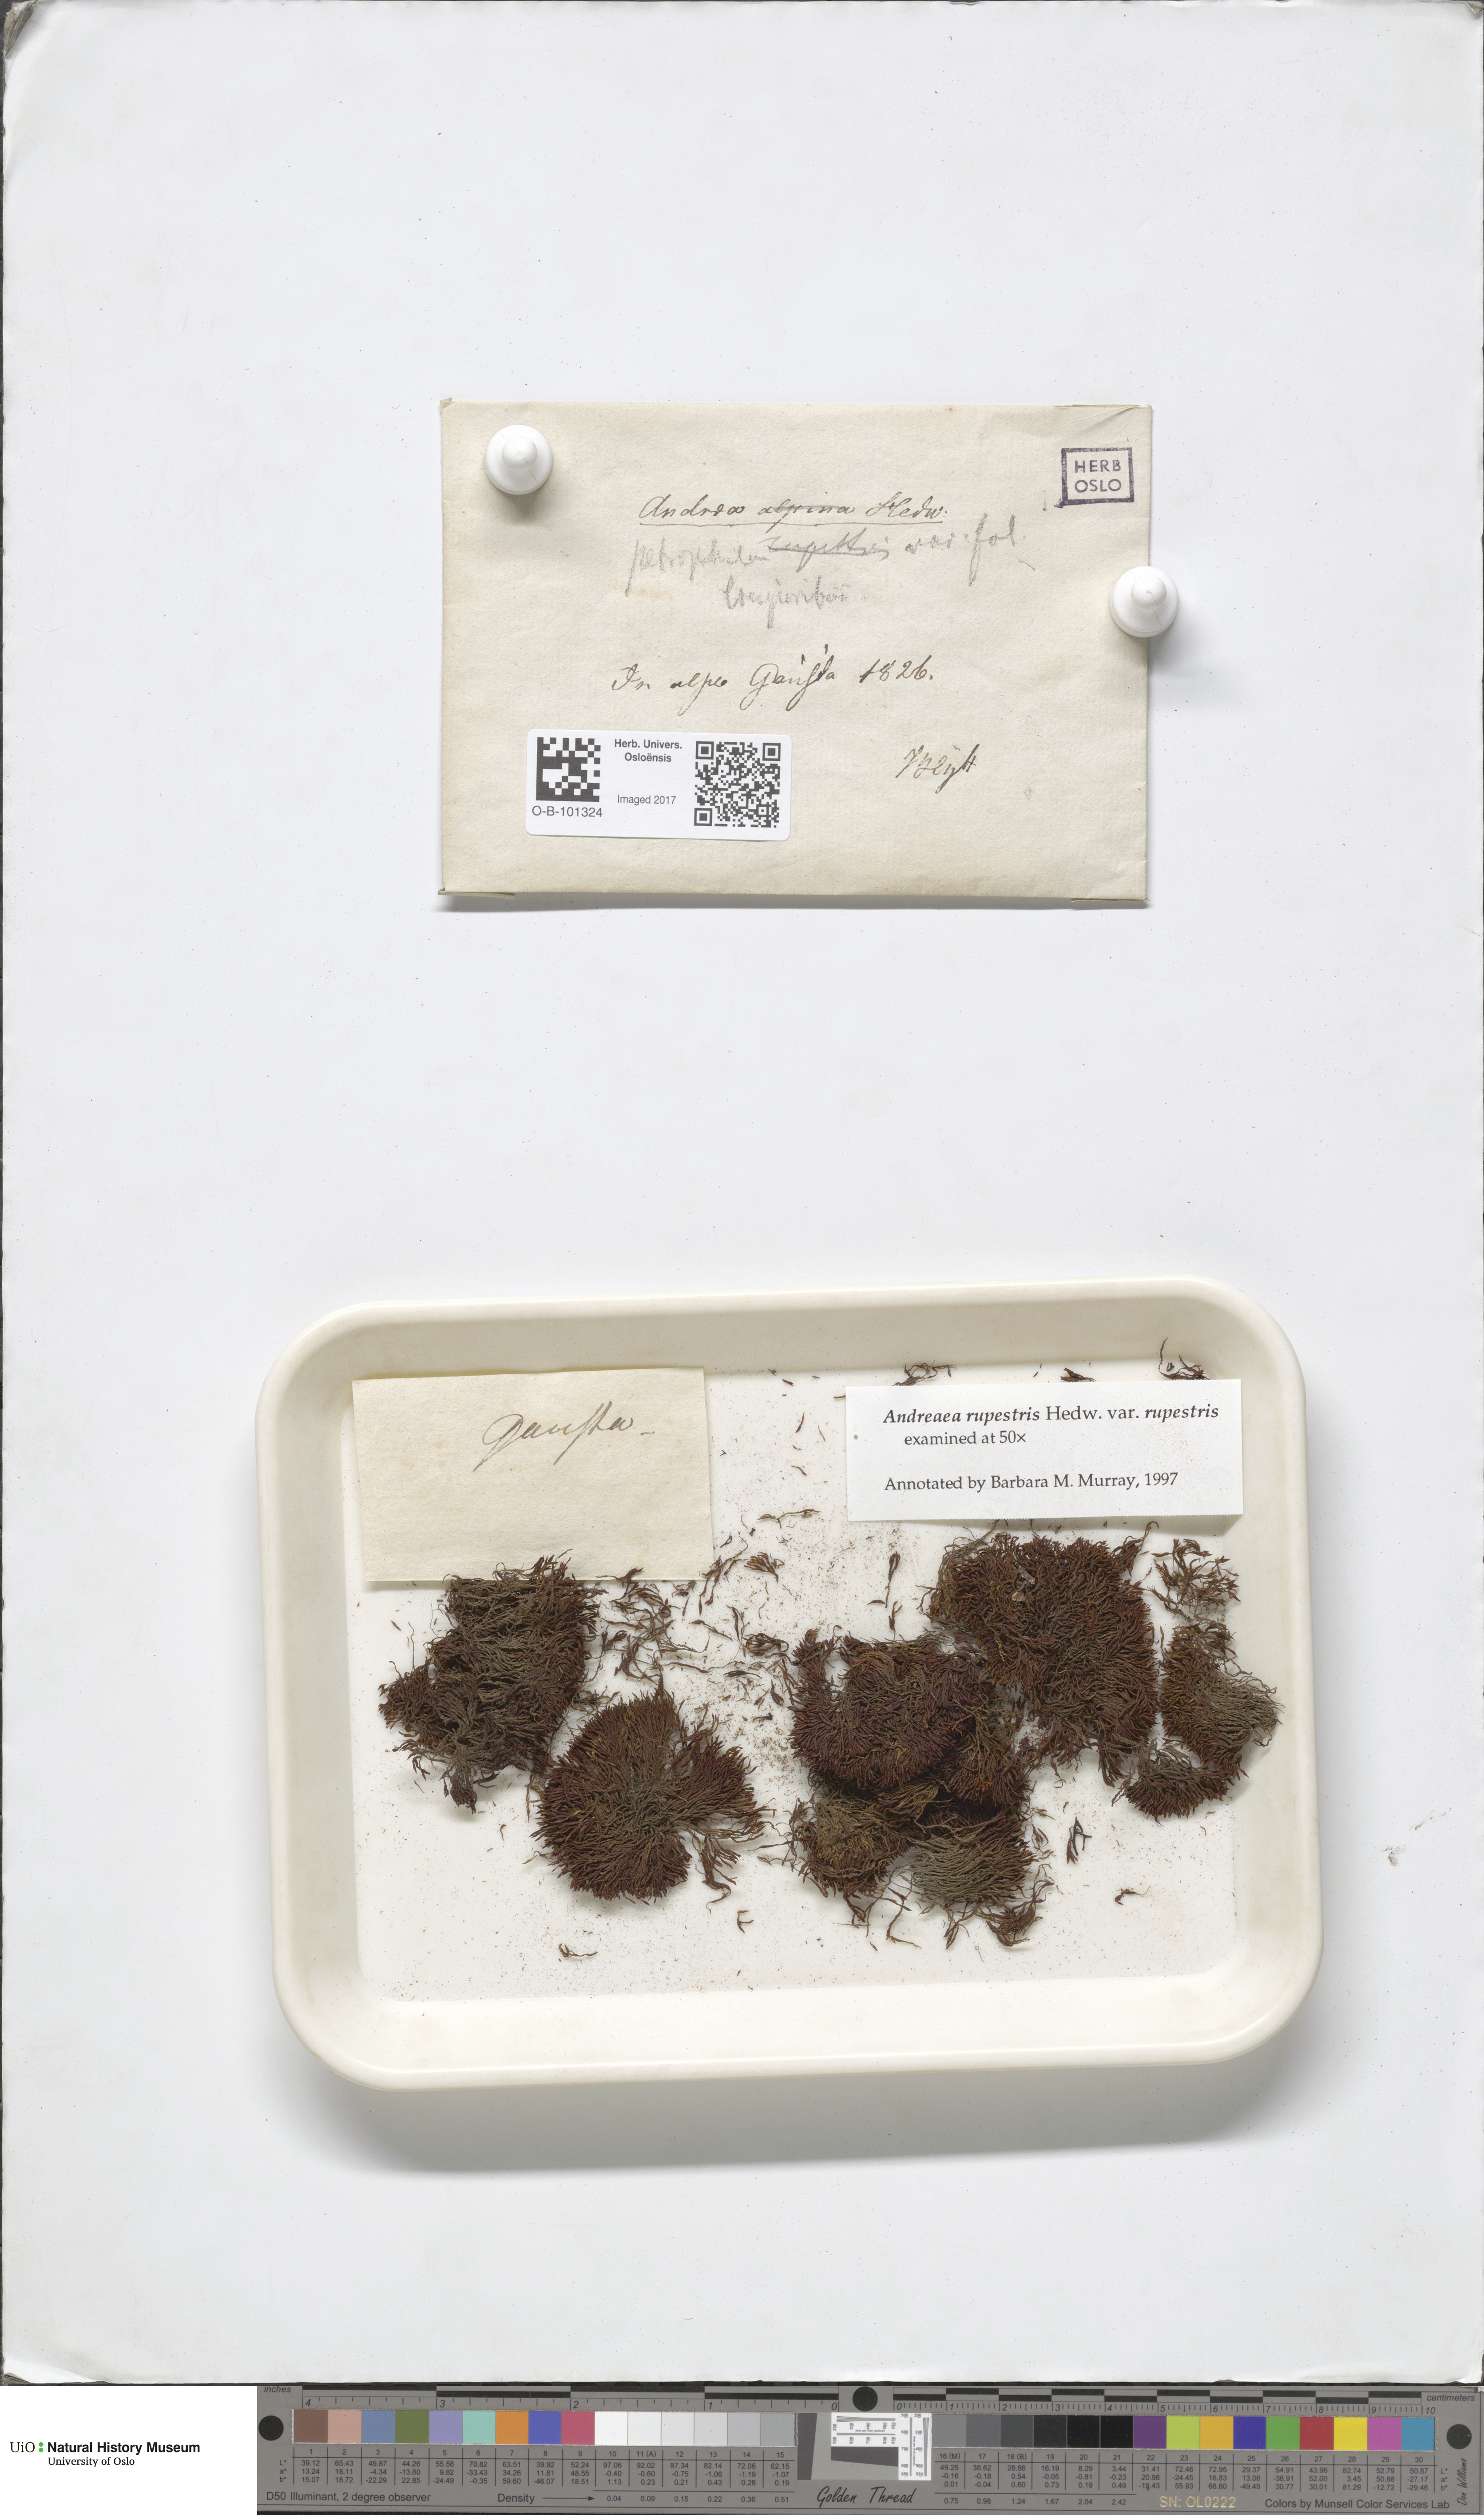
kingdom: Plantae
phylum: Bryophyta
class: Andreaeopsida
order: Andreaeales
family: Andreaeaceae
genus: Andreaea
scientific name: Andreaea rupestris
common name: Black rock moss
